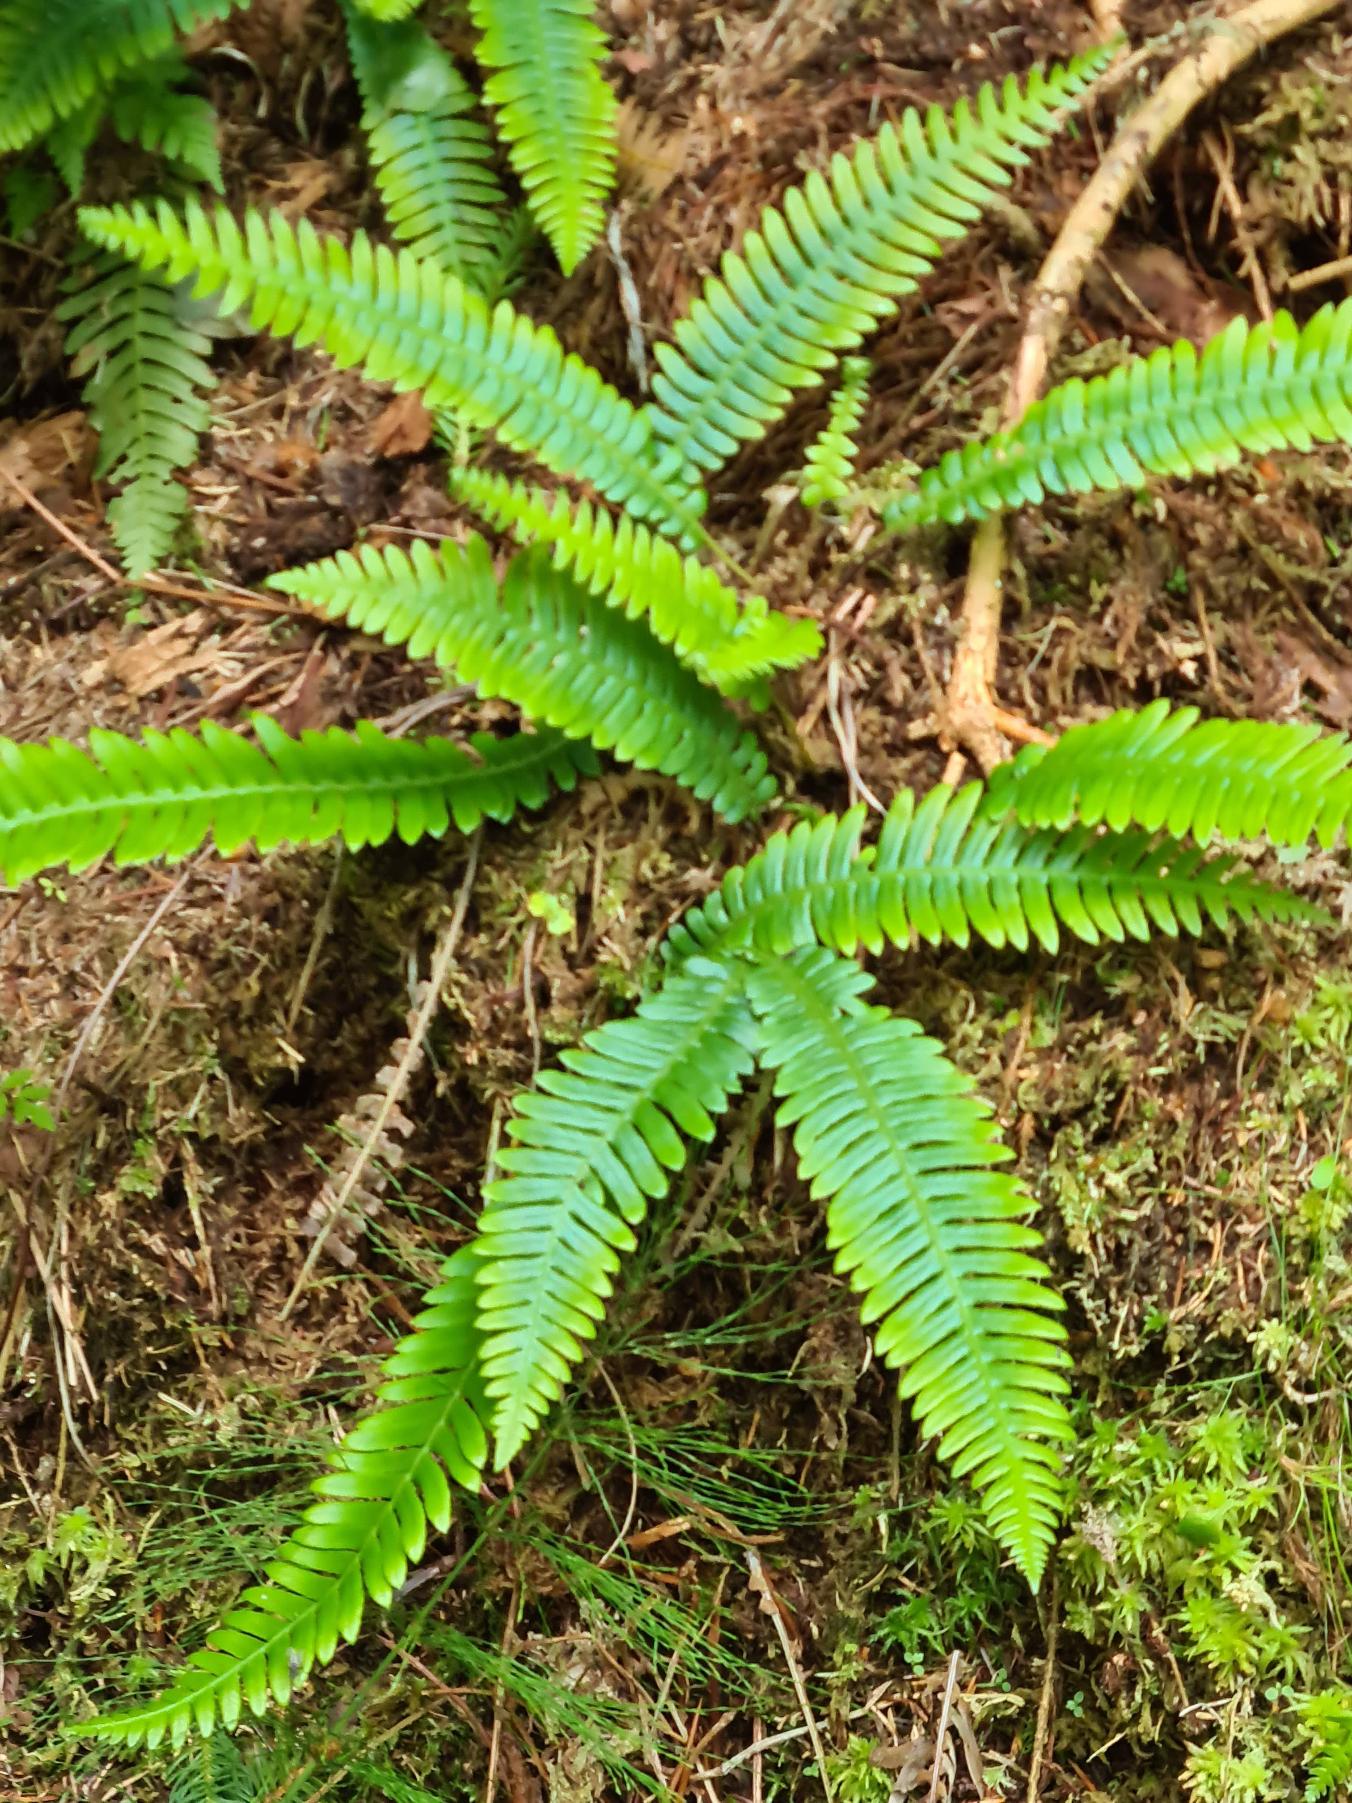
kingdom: Plantae
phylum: Tracheophyta
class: Polypodiopsida
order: Polypodiales
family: Blechnaceae
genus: Struthiopteris
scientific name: Struthiopteris spicant
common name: Kambregne
